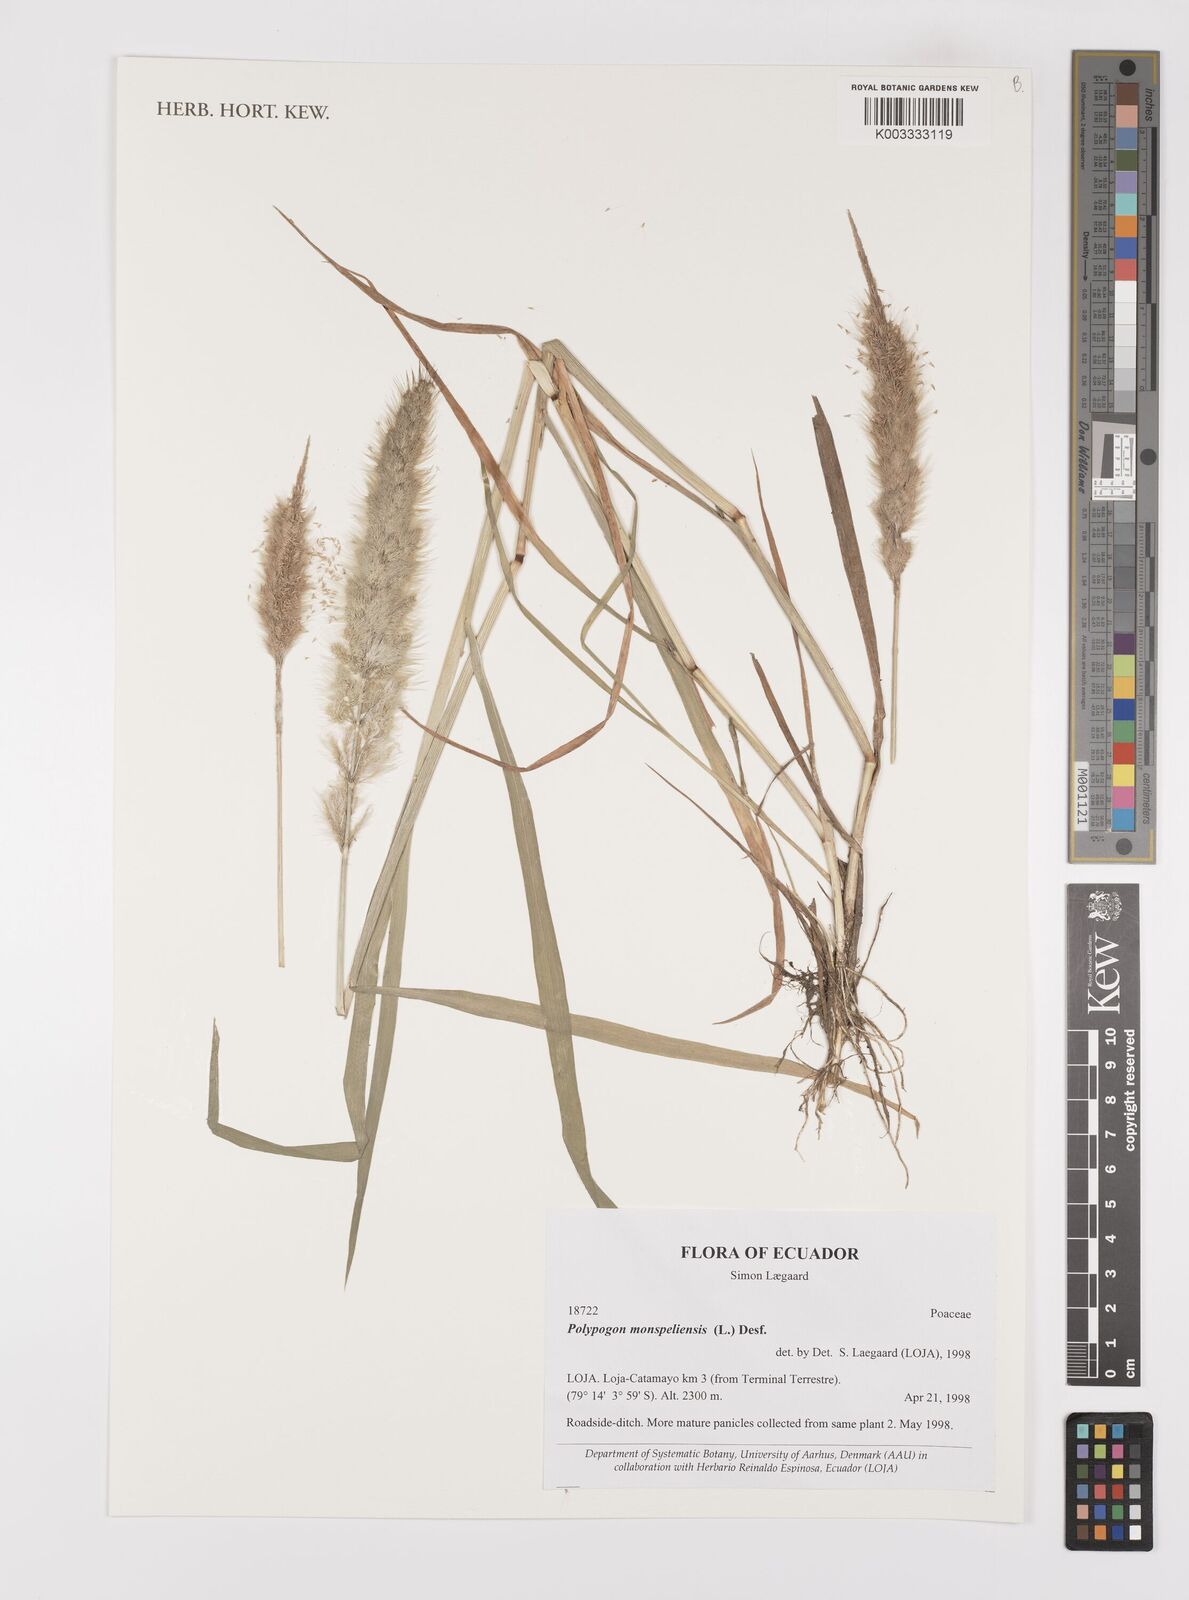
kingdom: Plantae
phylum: Tracheophyta
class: Liliopsida
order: Poales
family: Poaceae
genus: Polypogon
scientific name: Polypogon monspeliensis
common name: Annual rabbitsfoot grass
